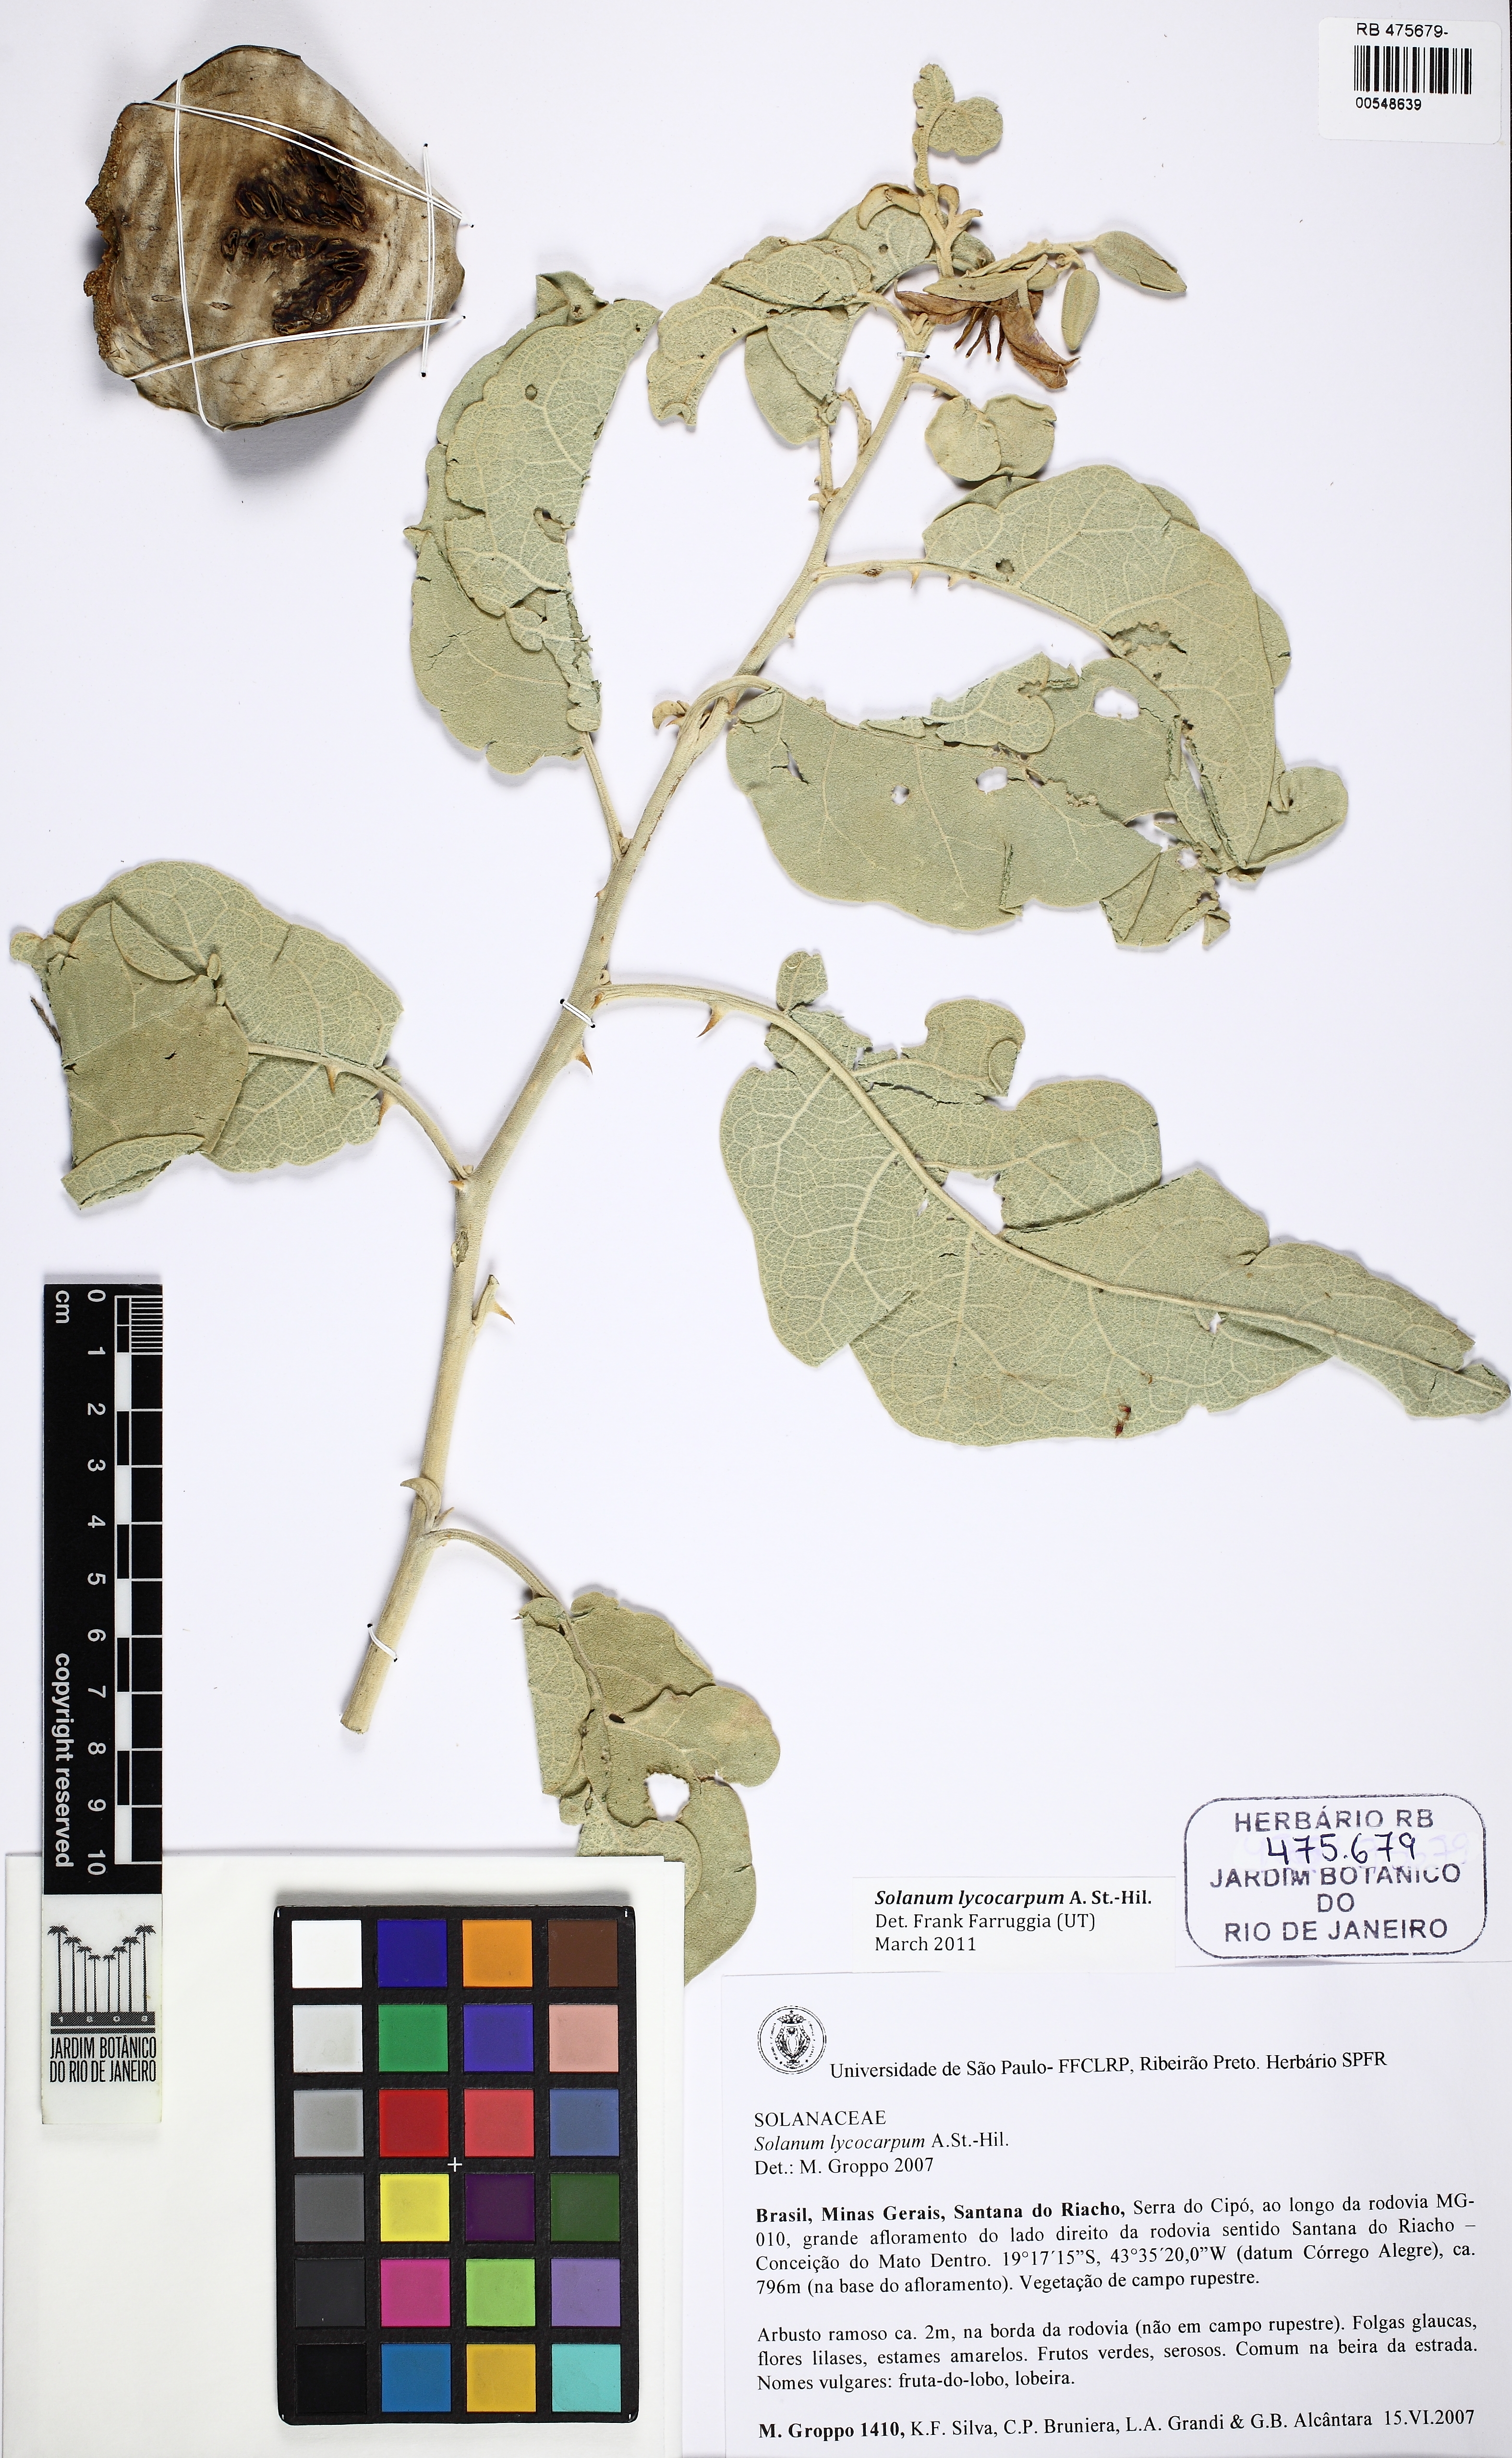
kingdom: Plantae
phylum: Tracheophyta
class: Magnoliopsida
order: Solanales
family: Solanaceae
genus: Solanum
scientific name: Solanum lycocarpum
